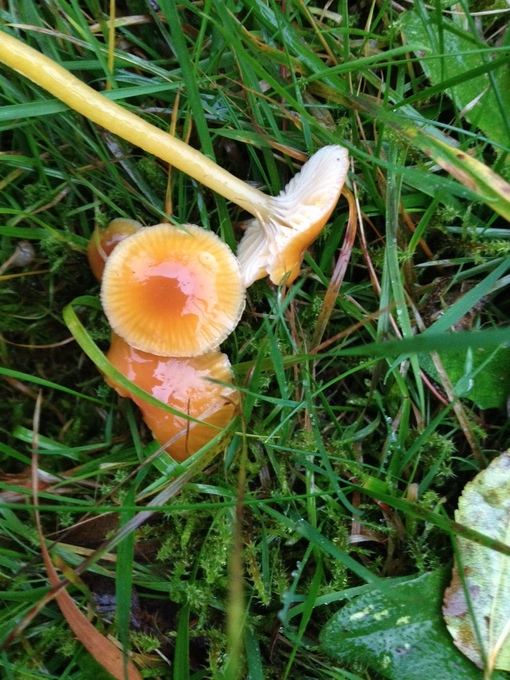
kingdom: Fungi
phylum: Basidiomycota
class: Agaricomycetes
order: Agaricales
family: Hygrophoraceae
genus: Gliophorus
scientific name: Gliophorus laetus
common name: brusk-vokshat
